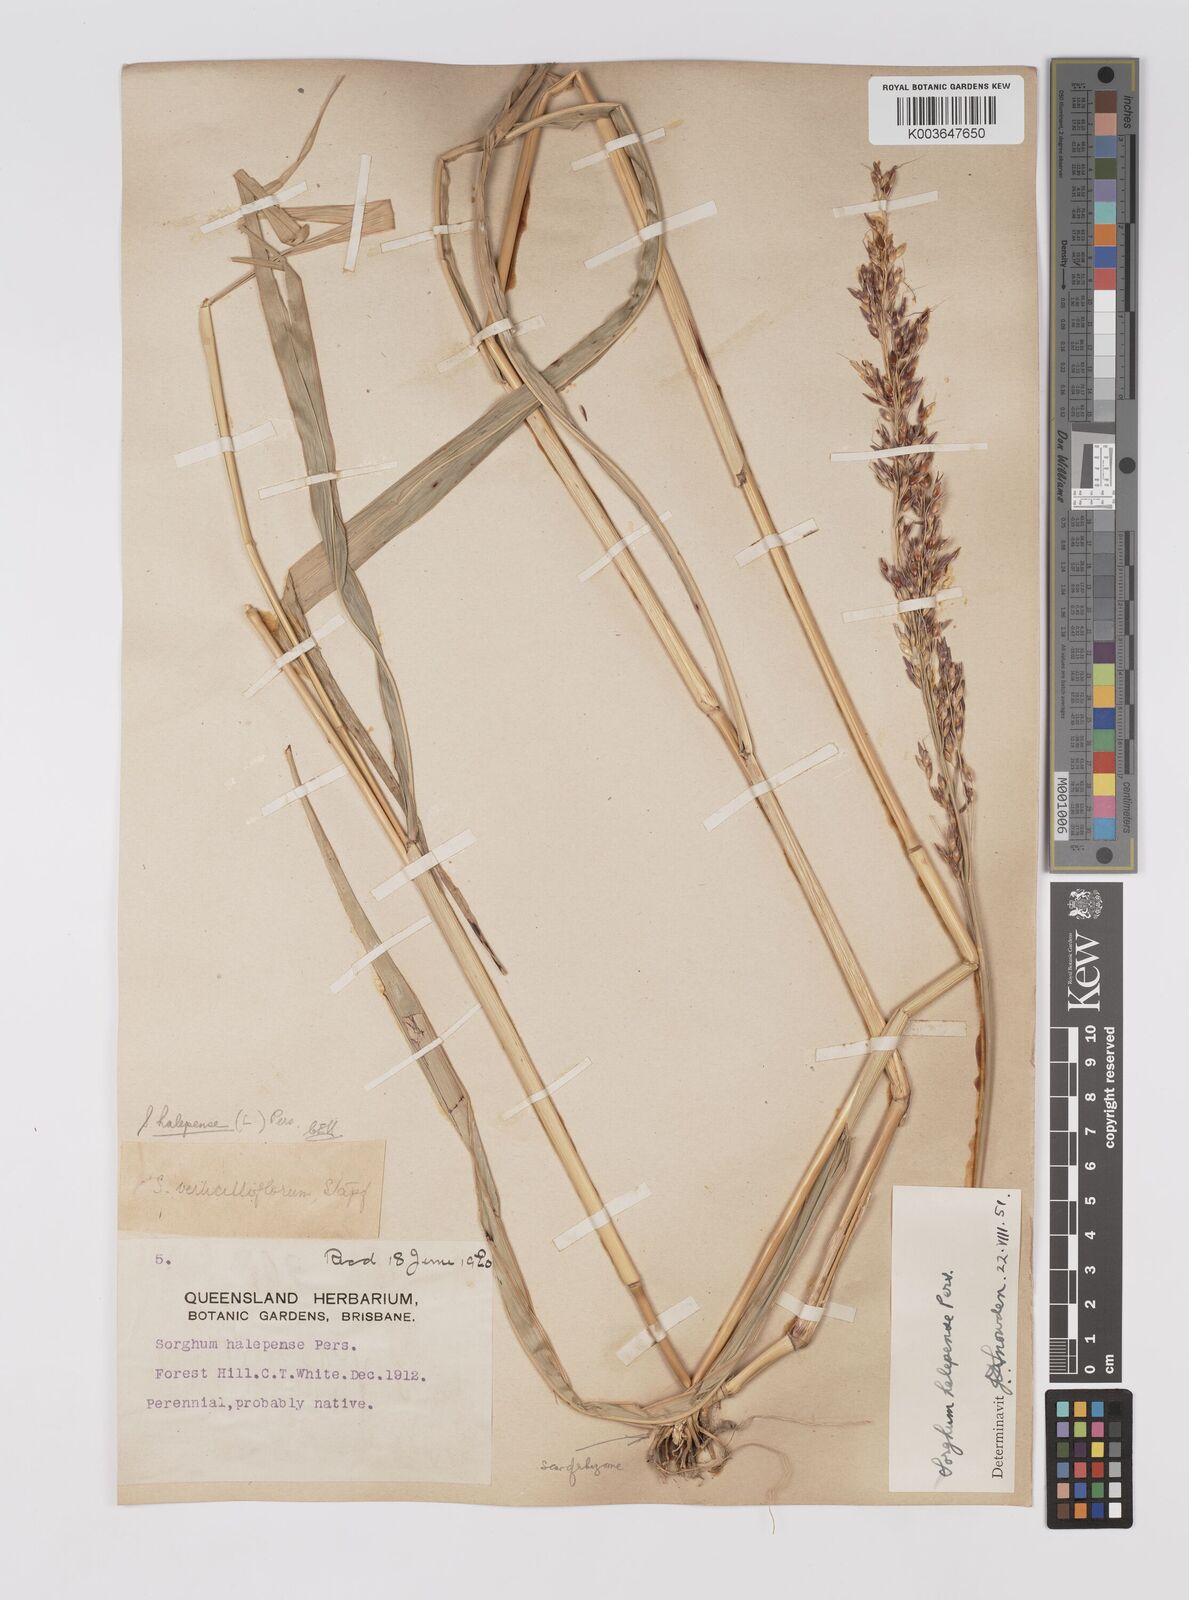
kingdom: Plantae
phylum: Tracheophyta
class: Liliopsida
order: Poales
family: Poaceae
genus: Sorghum
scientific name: Sorghum halepense
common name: Johnson-grass
